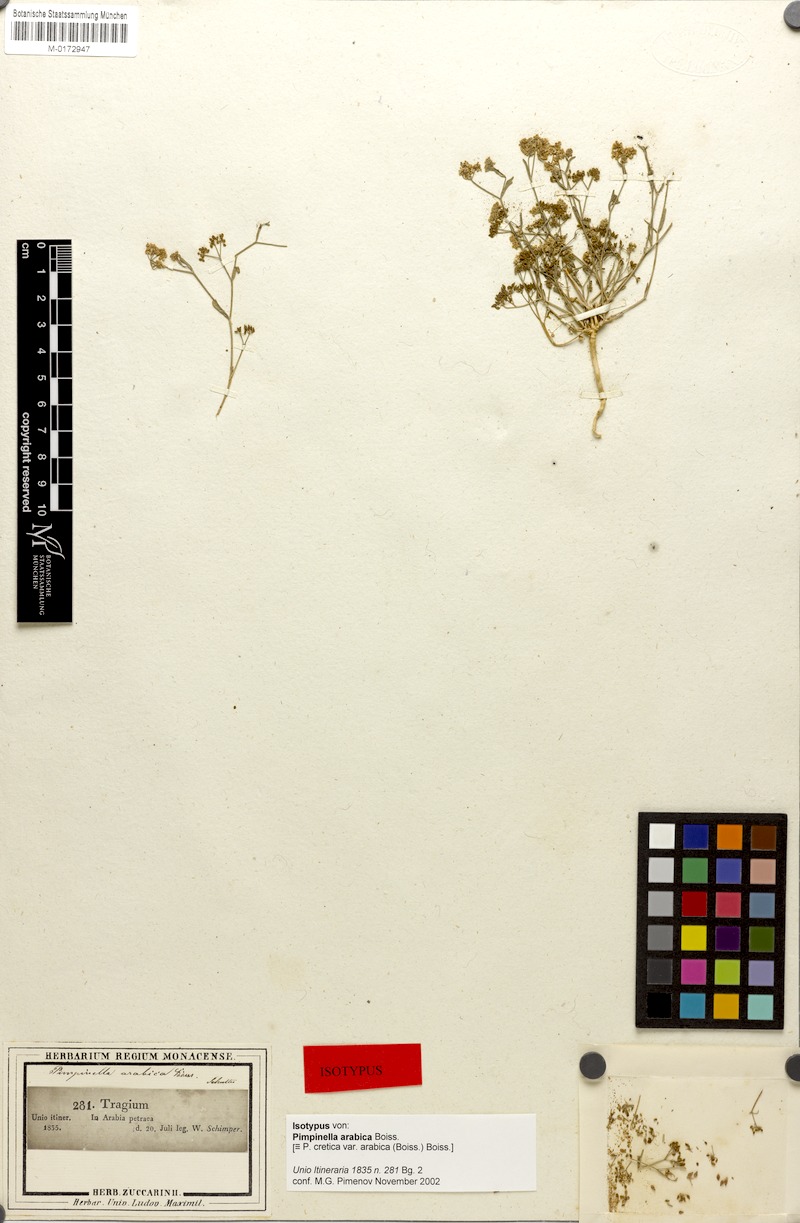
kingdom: Plantae
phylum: Tracheophyta
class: Magnoliopsida
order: Apiales
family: Apiaceae
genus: Pimpinella
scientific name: Pimpinella cretica
